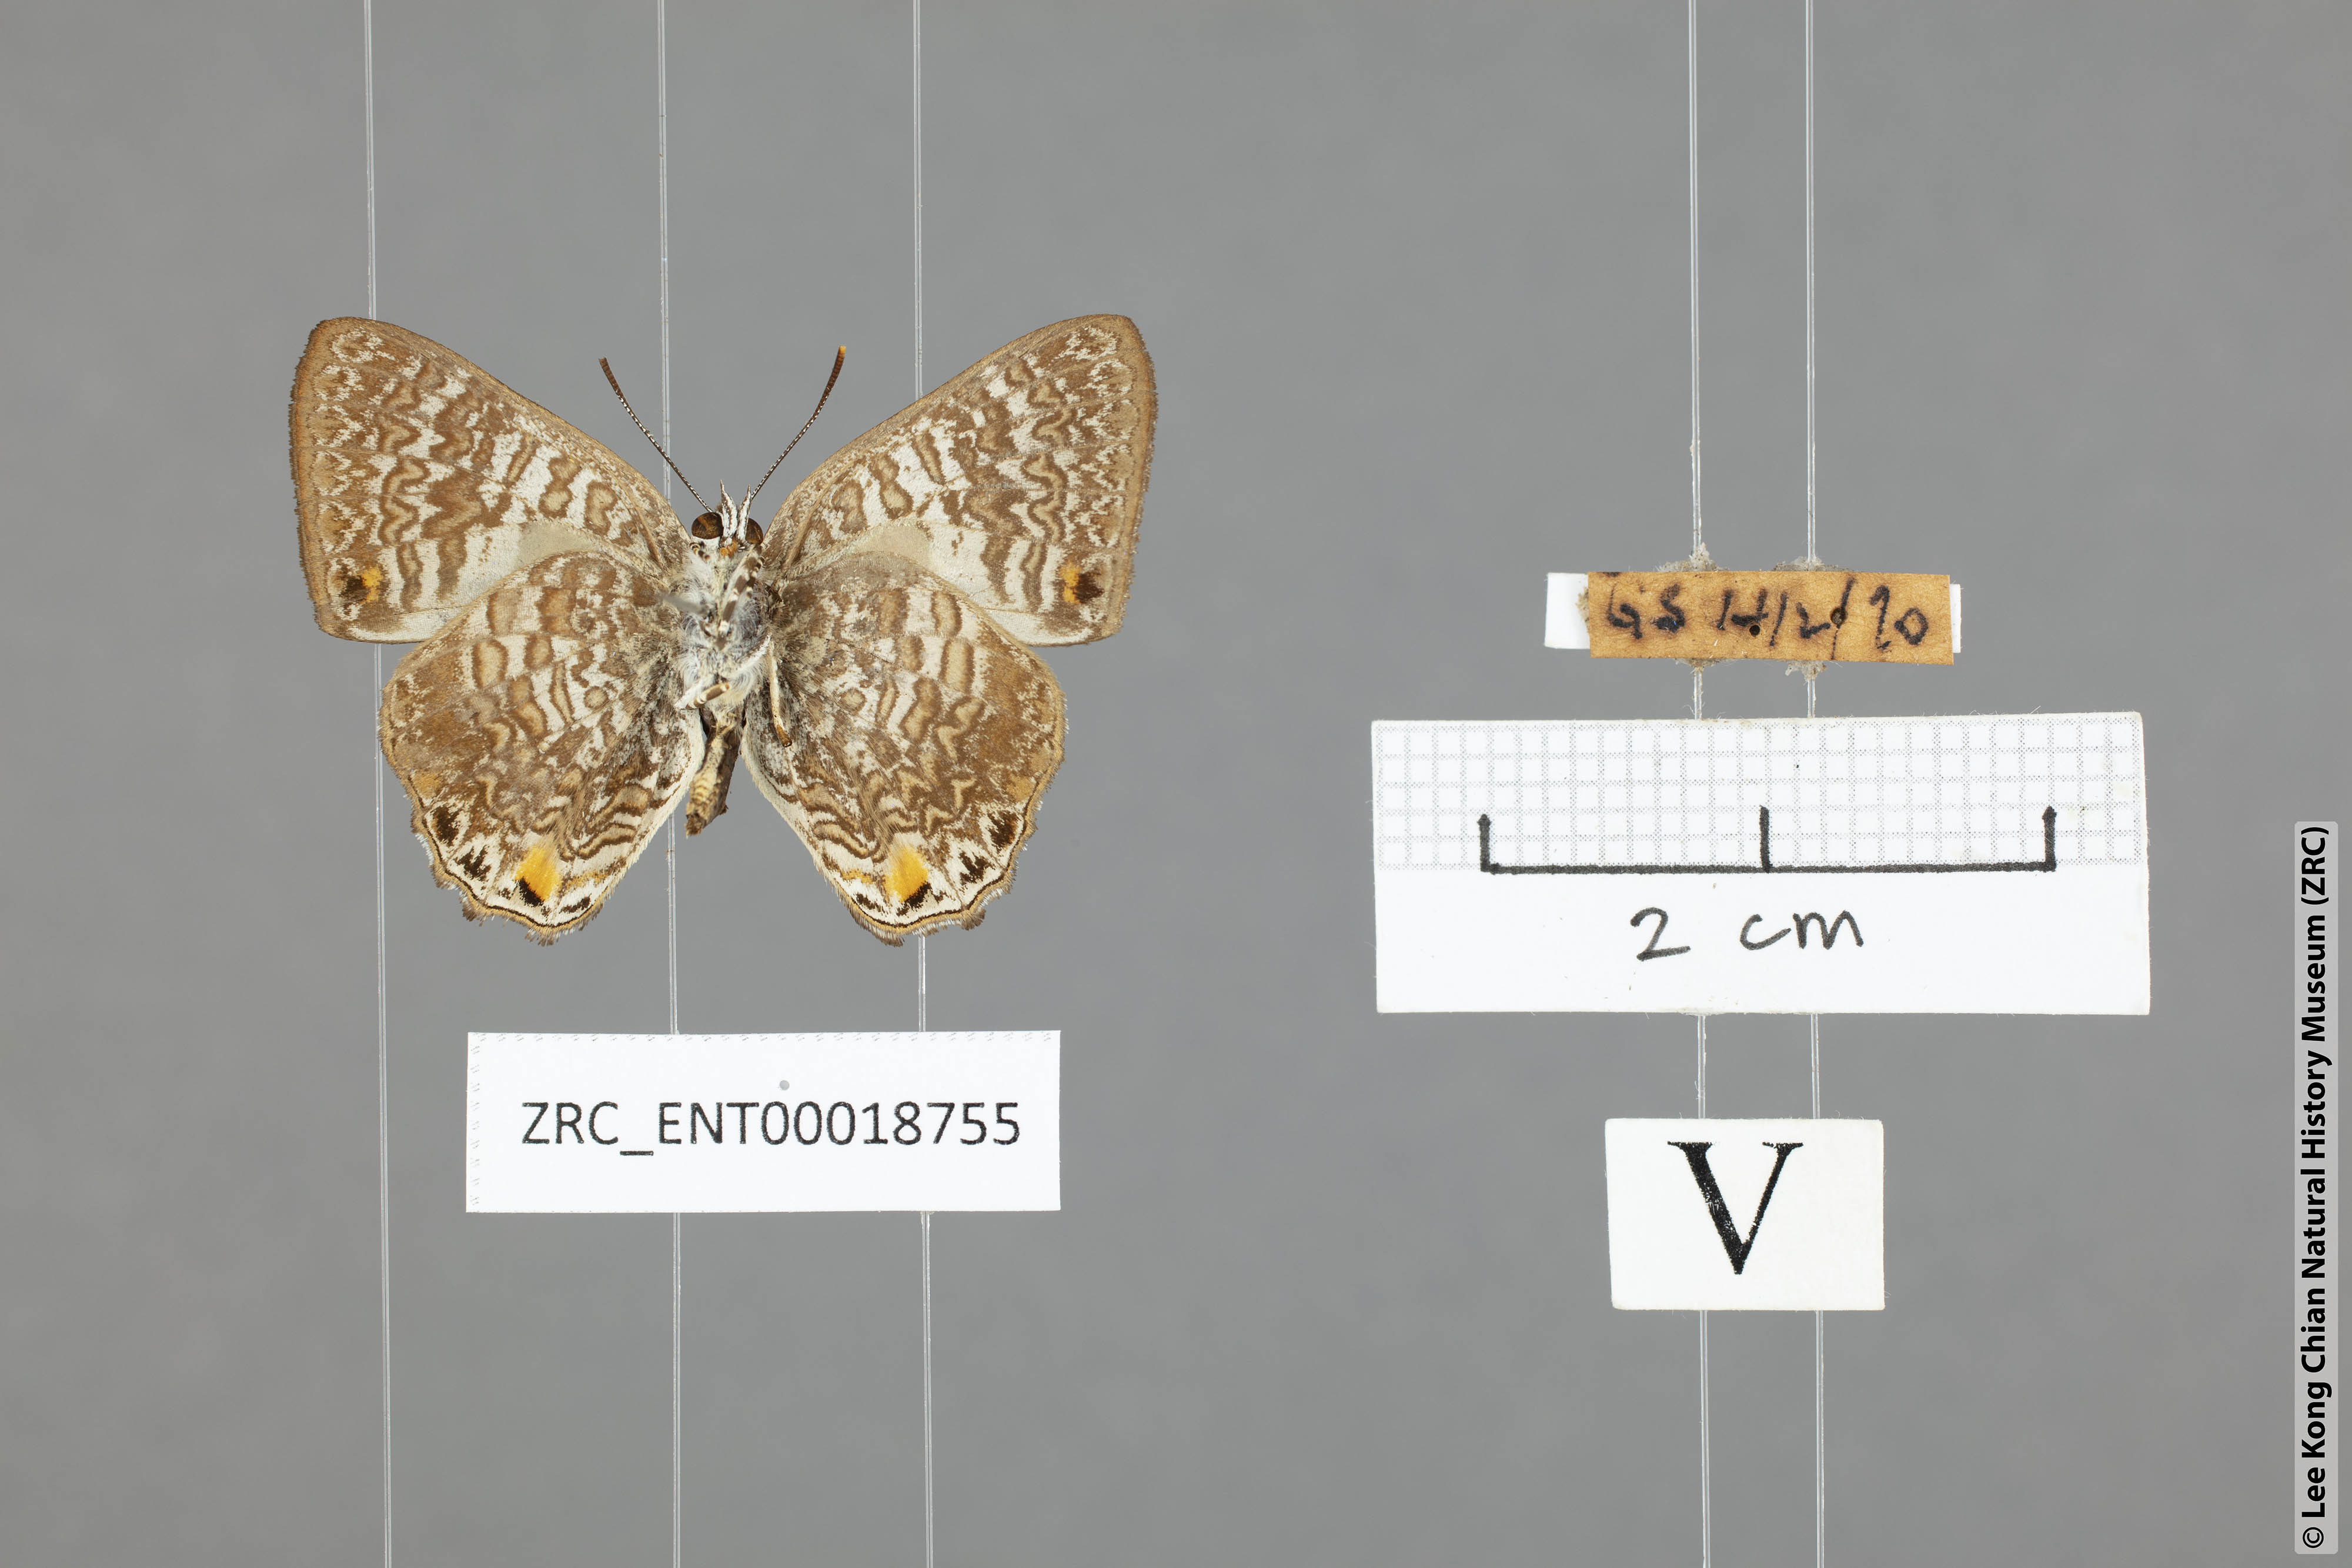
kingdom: Animalia
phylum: Arthropoda
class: Insecta
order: Lepidoptera
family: Lycaenidae
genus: Poritia
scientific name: Poritia erycinoides
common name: Blue gem
